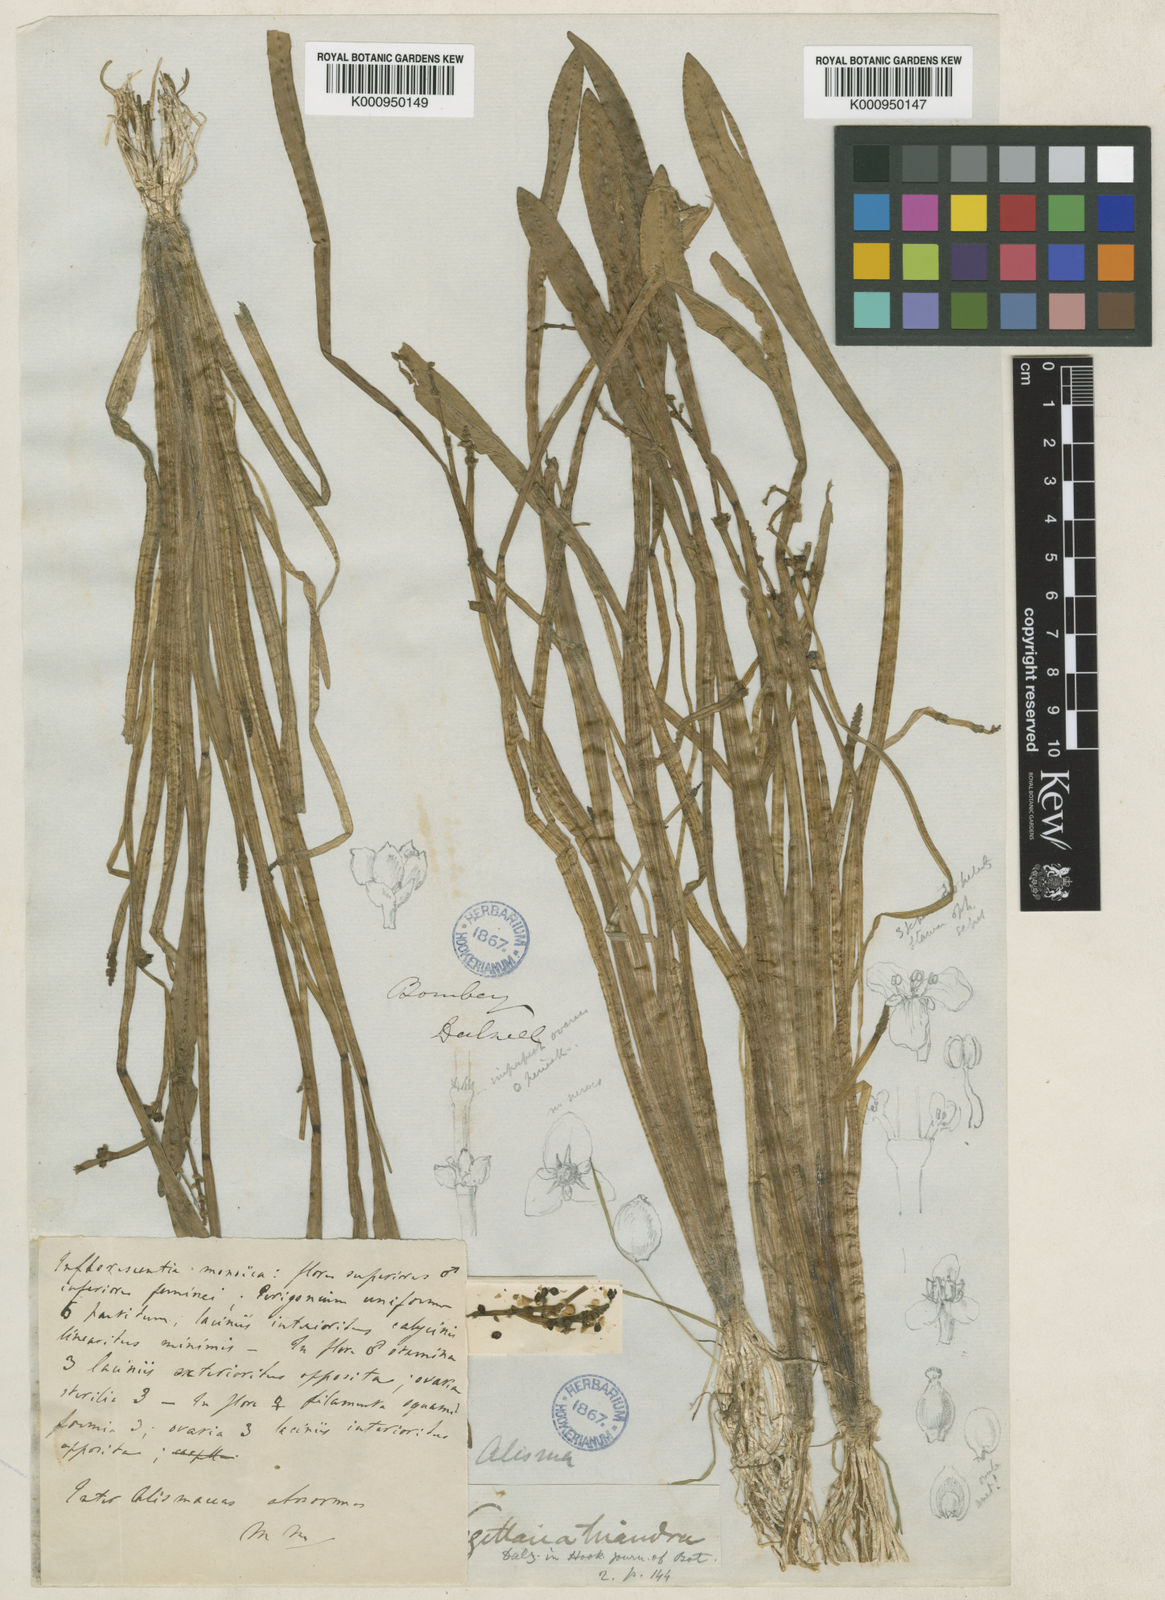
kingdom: Plantae
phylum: Tracheophyta
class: Liliopsida
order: Alismatales
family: Alismataceae
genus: Wiesneria
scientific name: Wiesneria triandra
